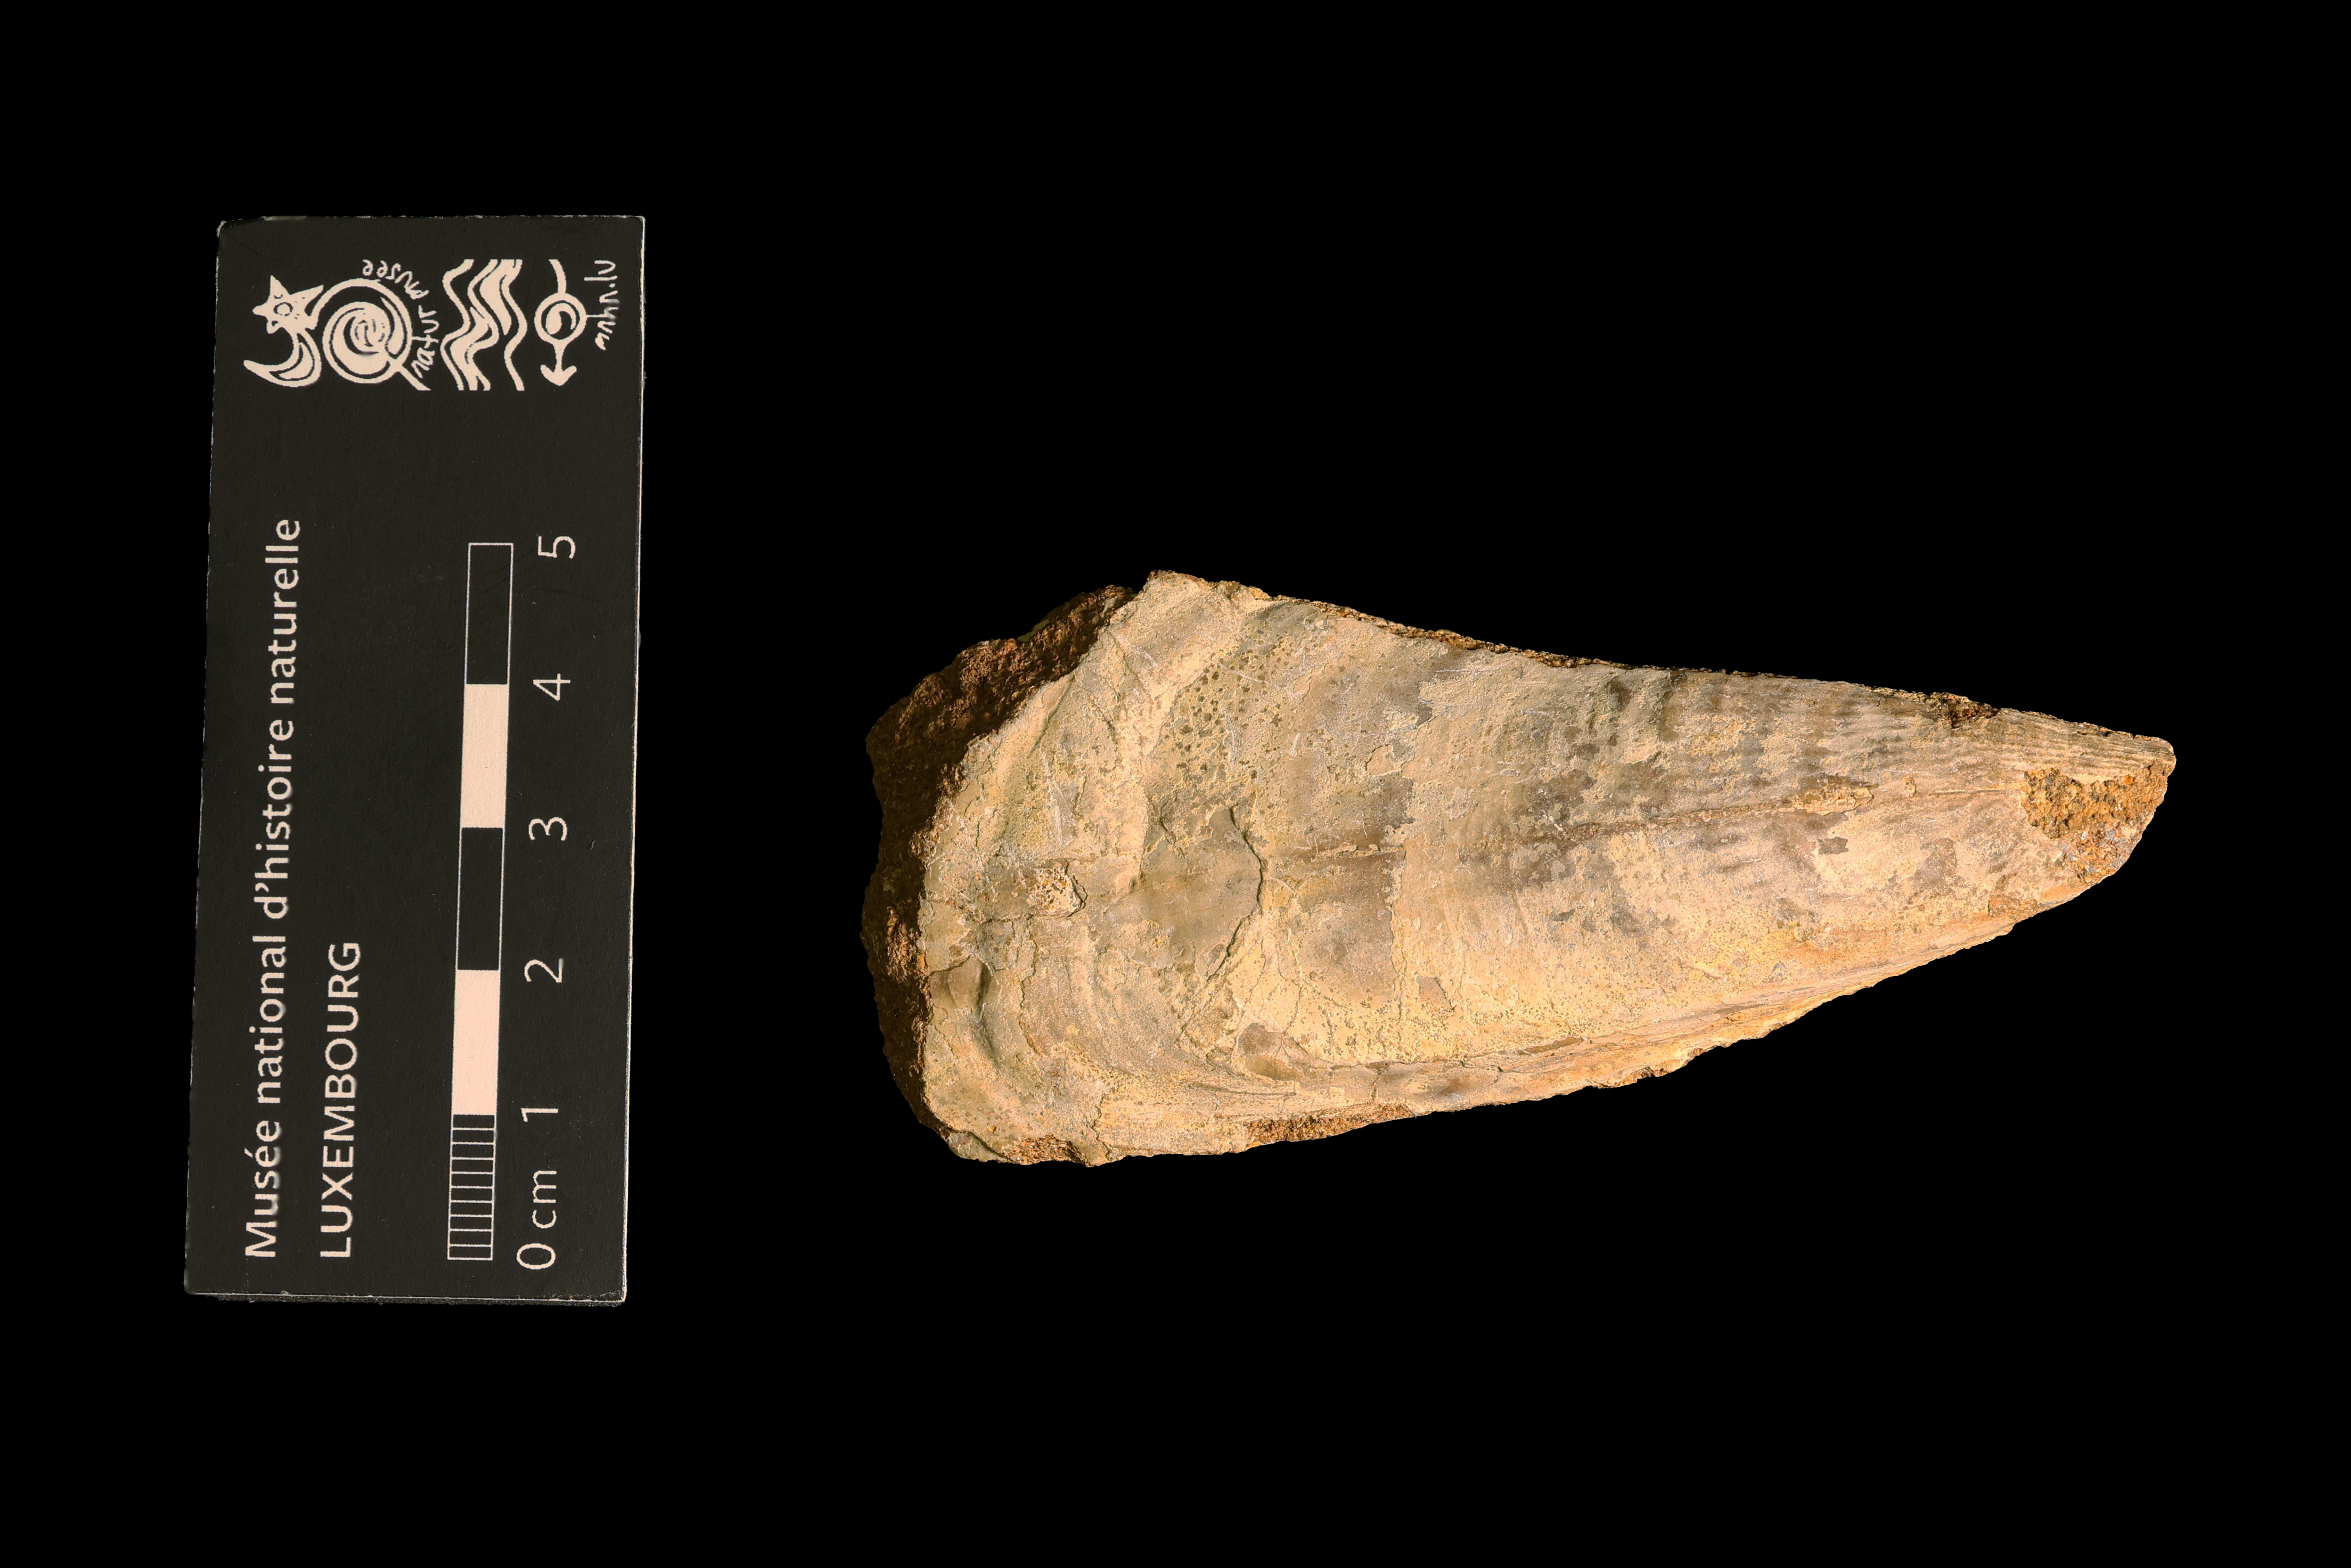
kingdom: Animalia
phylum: Mollusca
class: Bivalvia
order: Ostreida
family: Pinnidae
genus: Pinna
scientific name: Pinna
